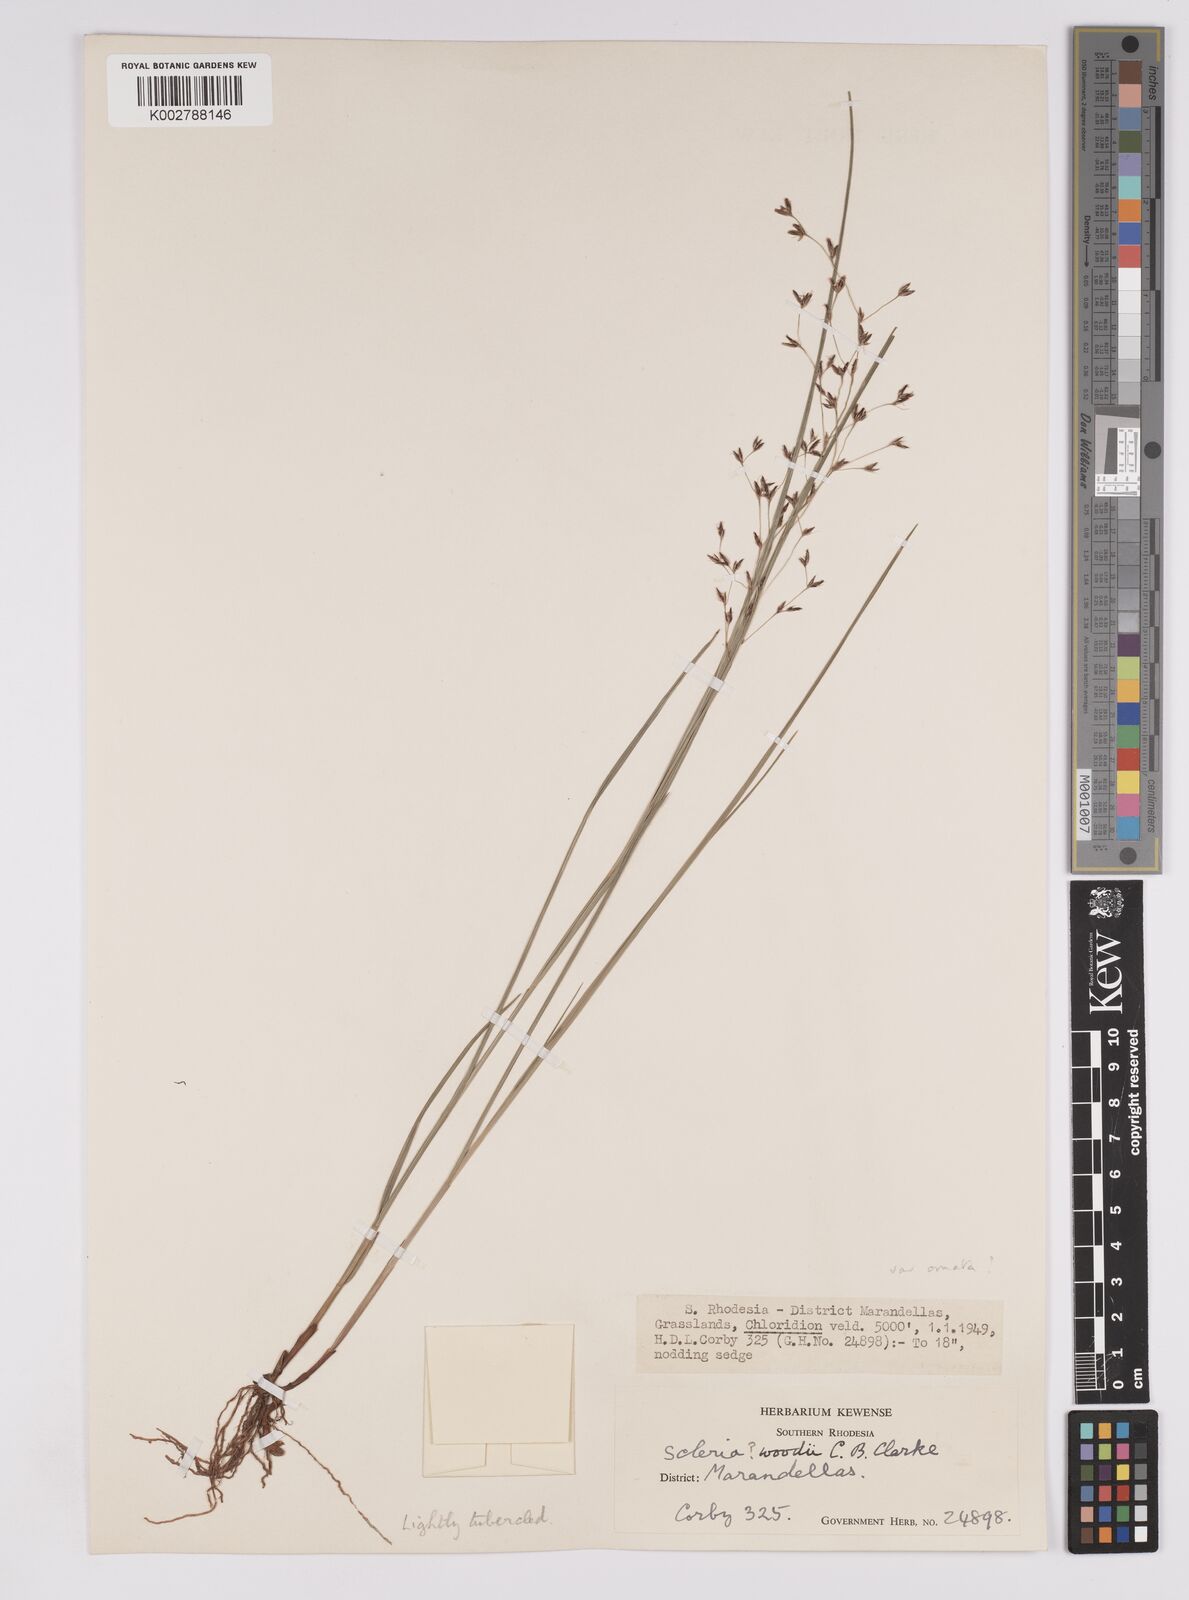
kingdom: Plantae
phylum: Tracheophyta
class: Liliopsida
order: Poales
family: Cyperaceae
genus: Scleria
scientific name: Scleria woodii
